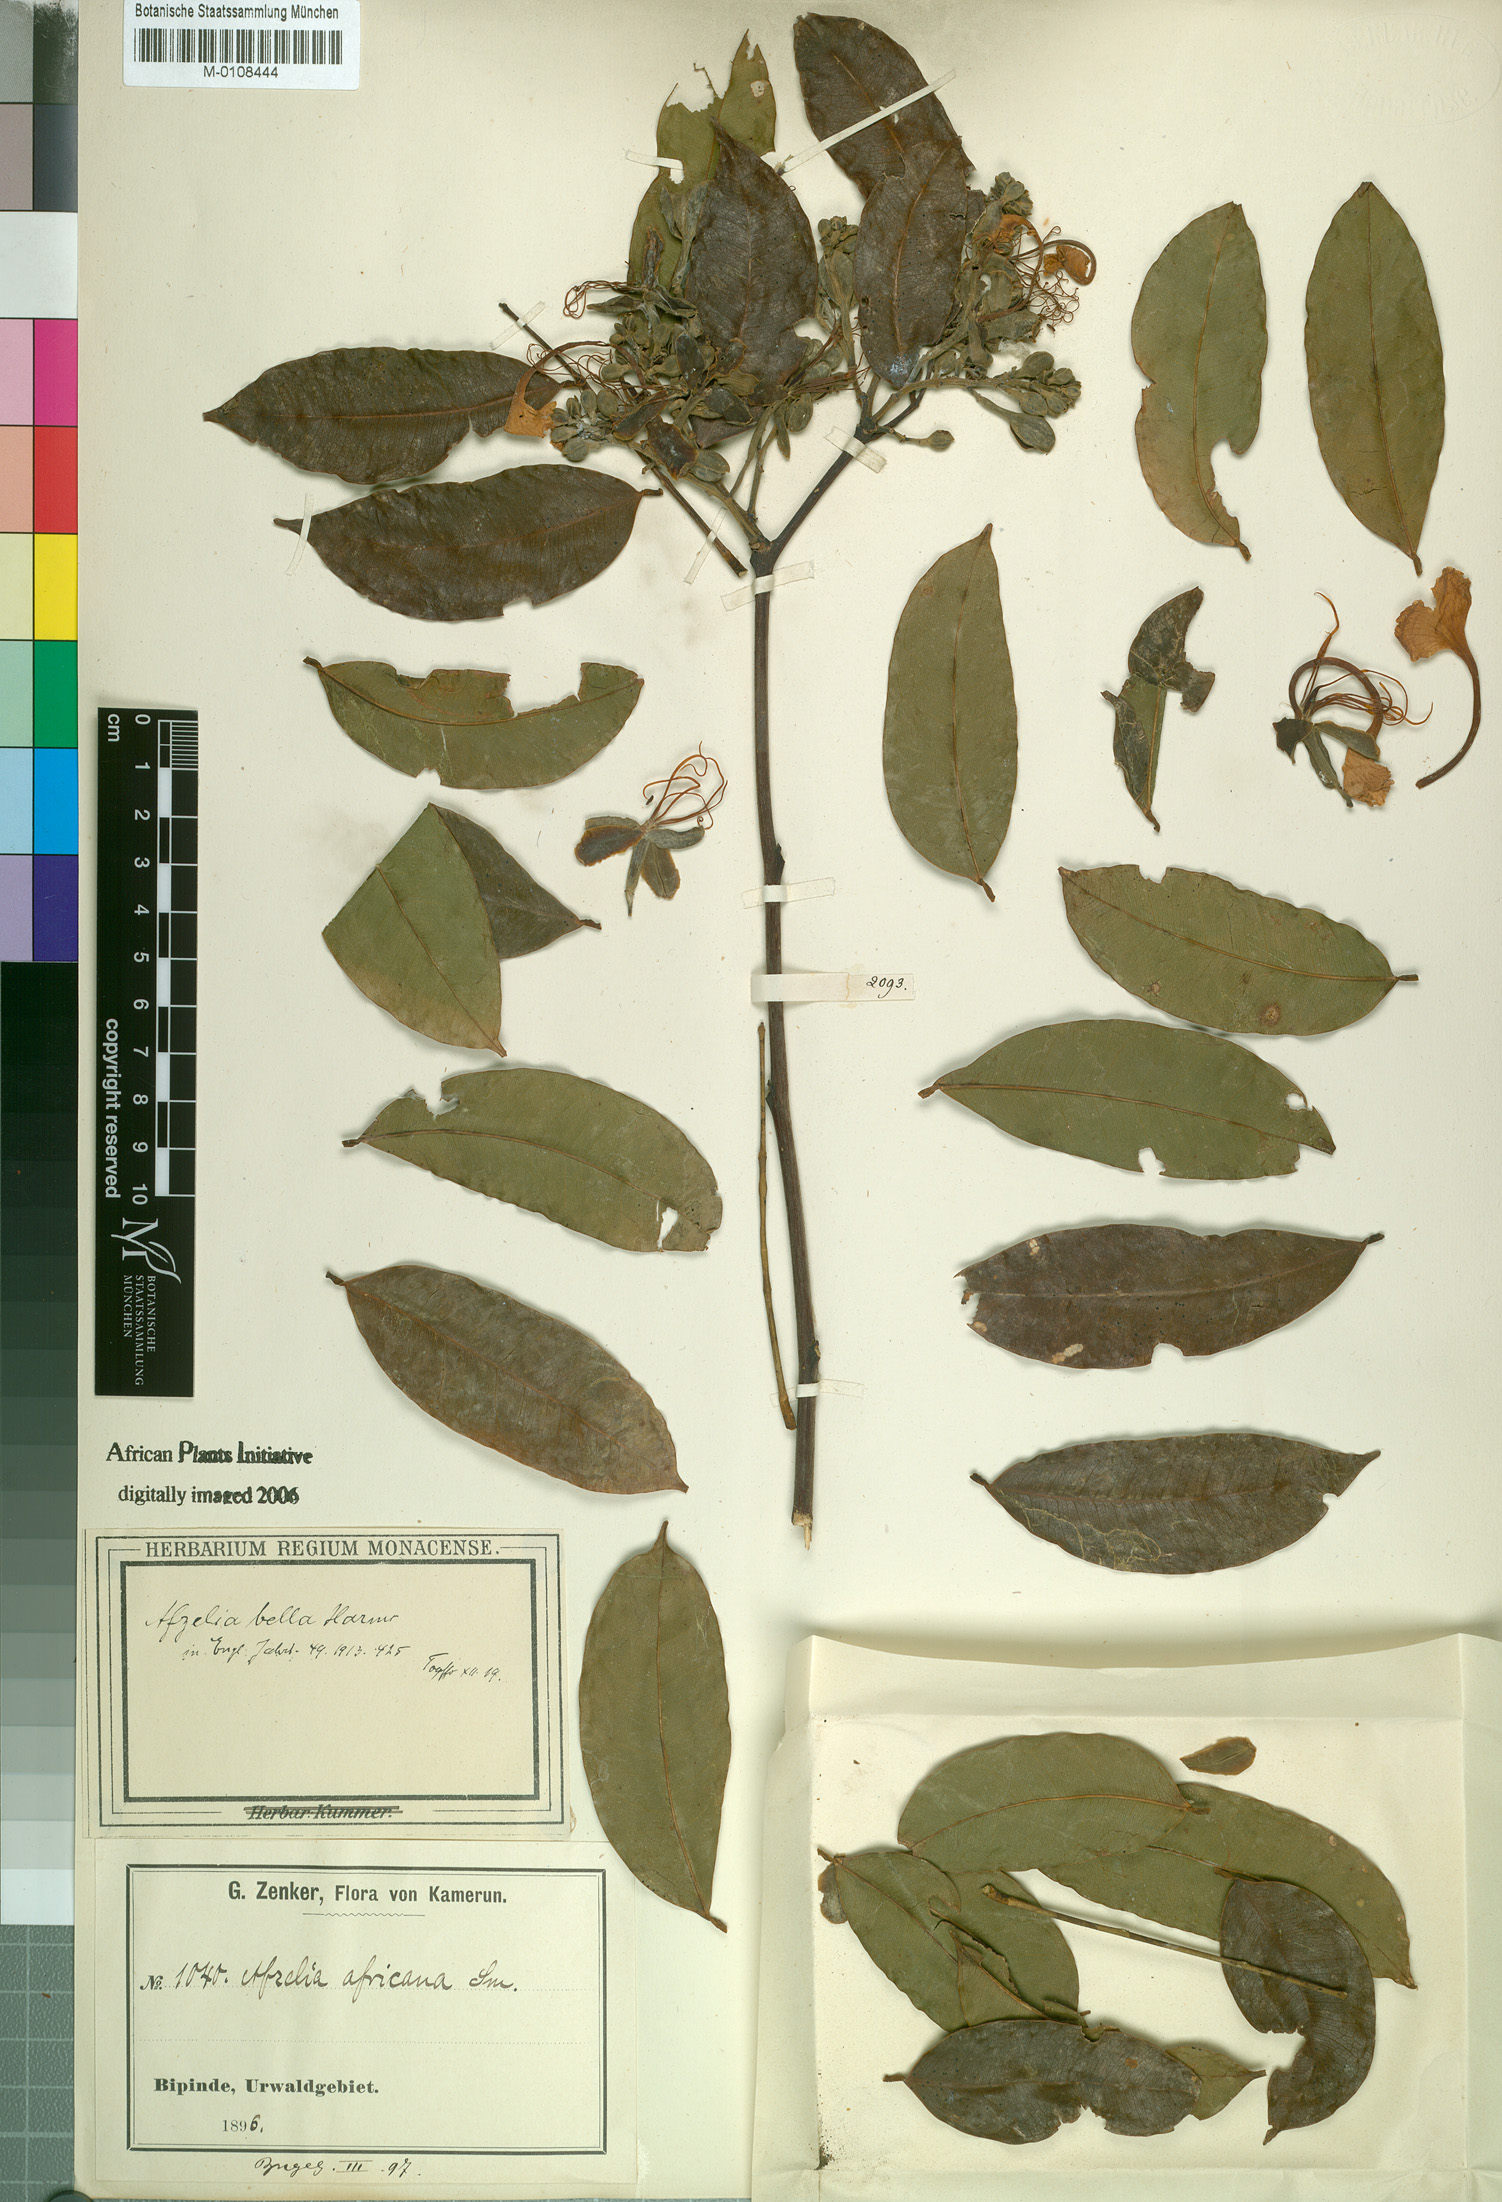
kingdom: Plantae
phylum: Tracheophyta
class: Magnoliopsida
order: Fabales
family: Fabaceae
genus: Afzelia
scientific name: Afzelia bella
